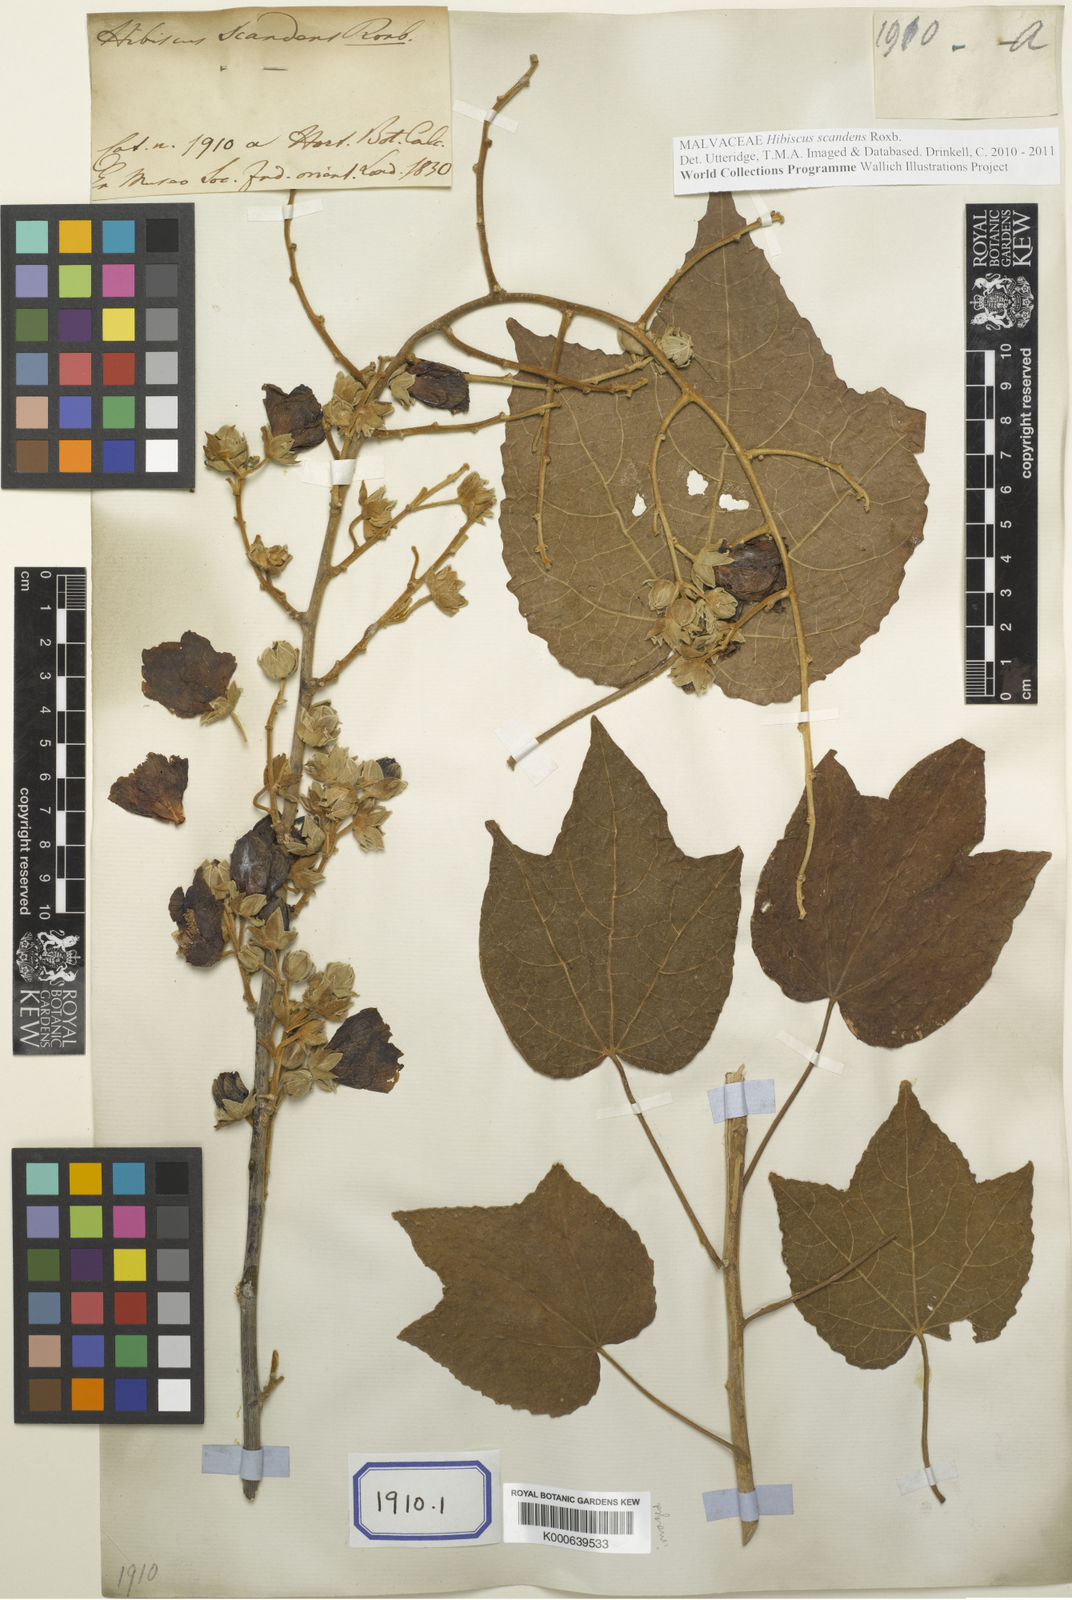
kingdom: Plantae
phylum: Tracheophyta
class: Magnoliopsida
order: Malvales
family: Malvaceae
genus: Hibiscus
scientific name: Hibiscus
